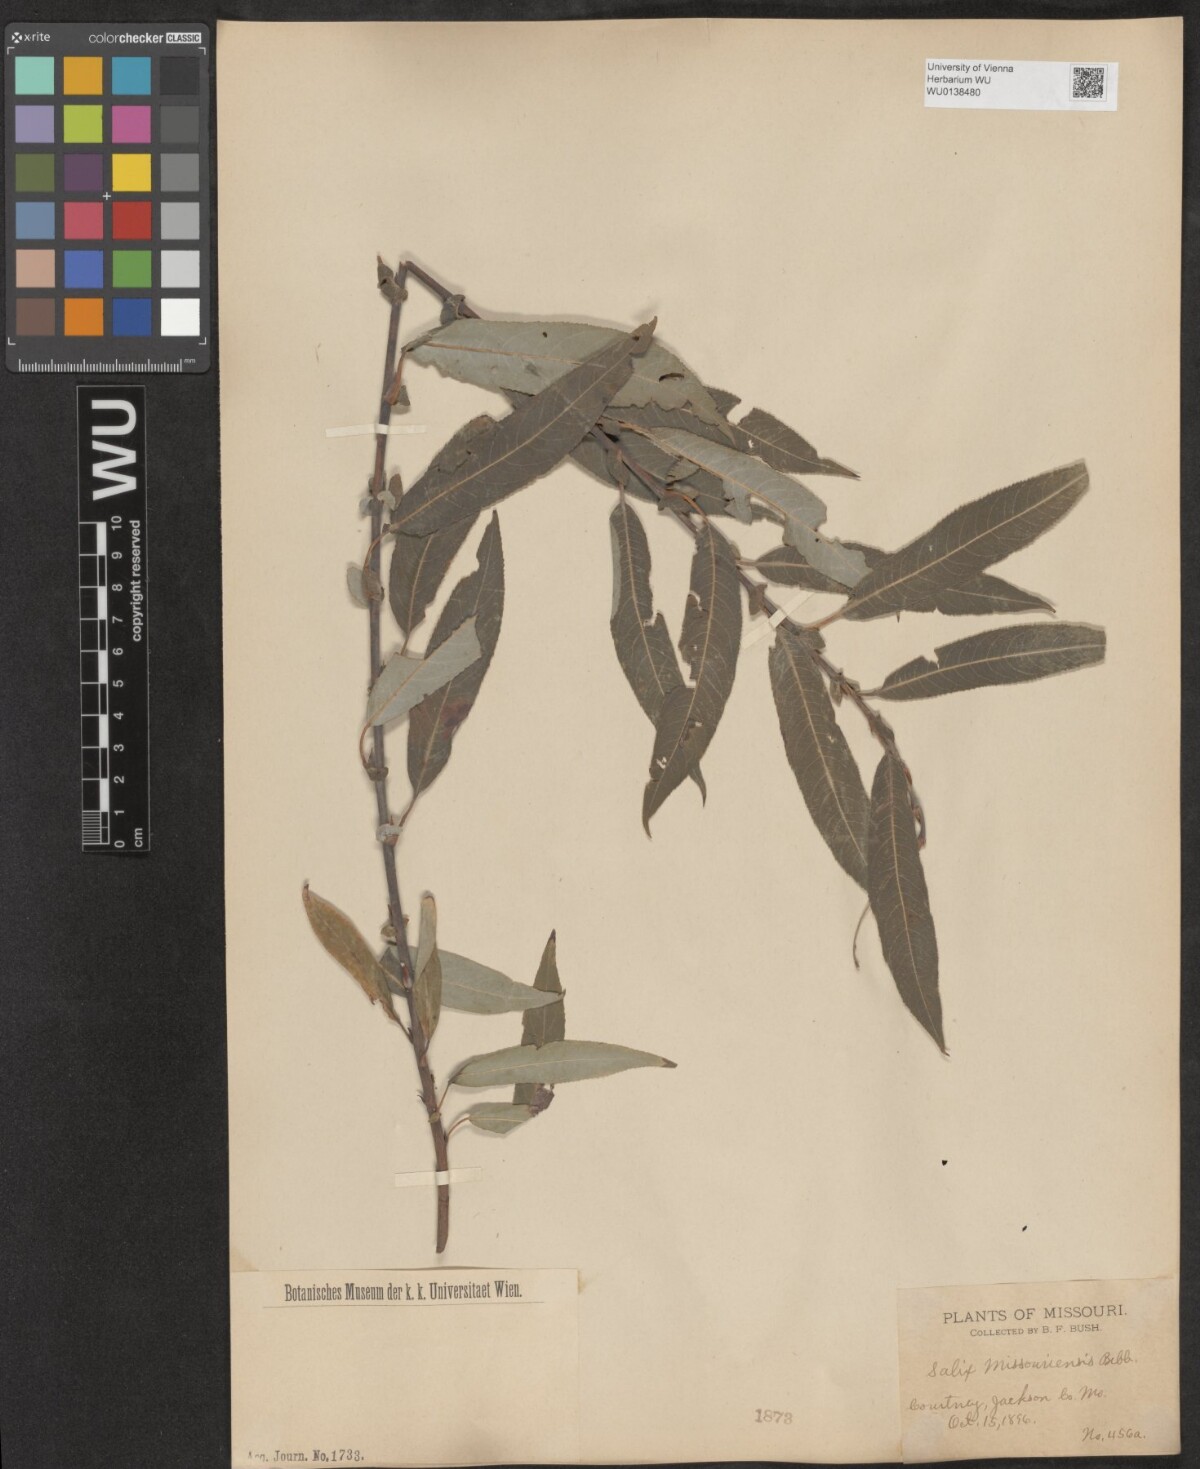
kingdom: Plantae
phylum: Tracheophyta
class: Magnoliopsida
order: Malpighiales
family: Salicaceae
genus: Salix
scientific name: Salix eriocephala
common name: Heart-leaved willow
